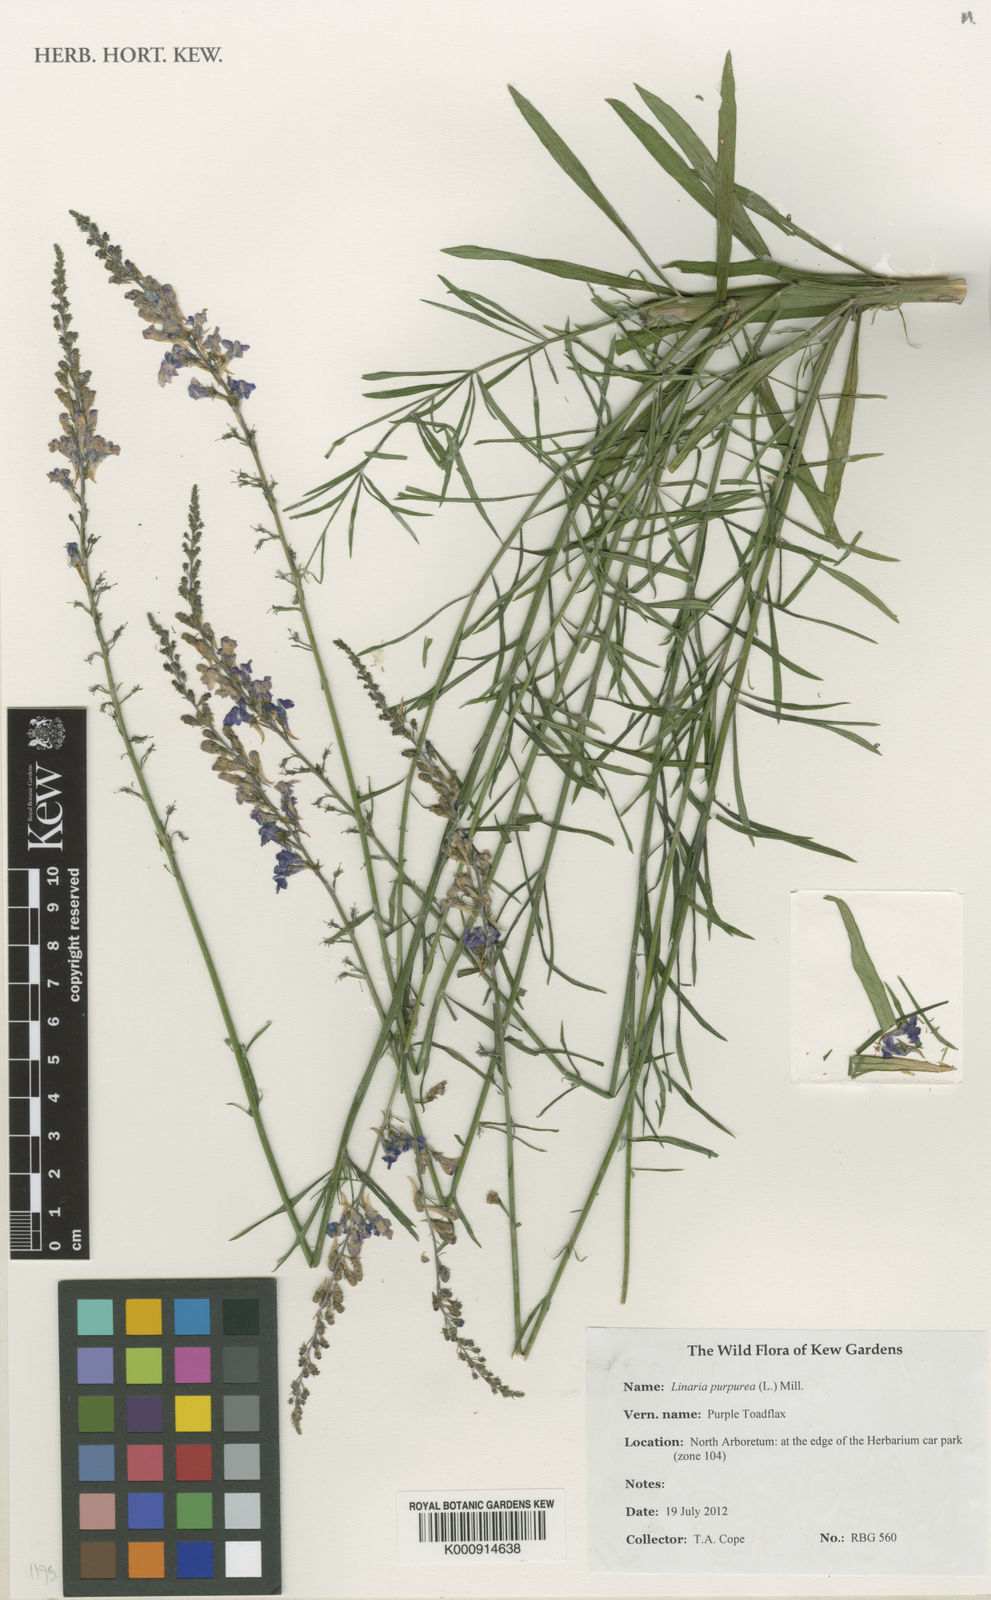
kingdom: Plantae
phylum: Tracheophyta
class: Magnoliopsida
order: Lamiales
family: Plantaginaceae
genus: Linaria
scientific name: Linaria purpurea
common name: Purple toadflax
